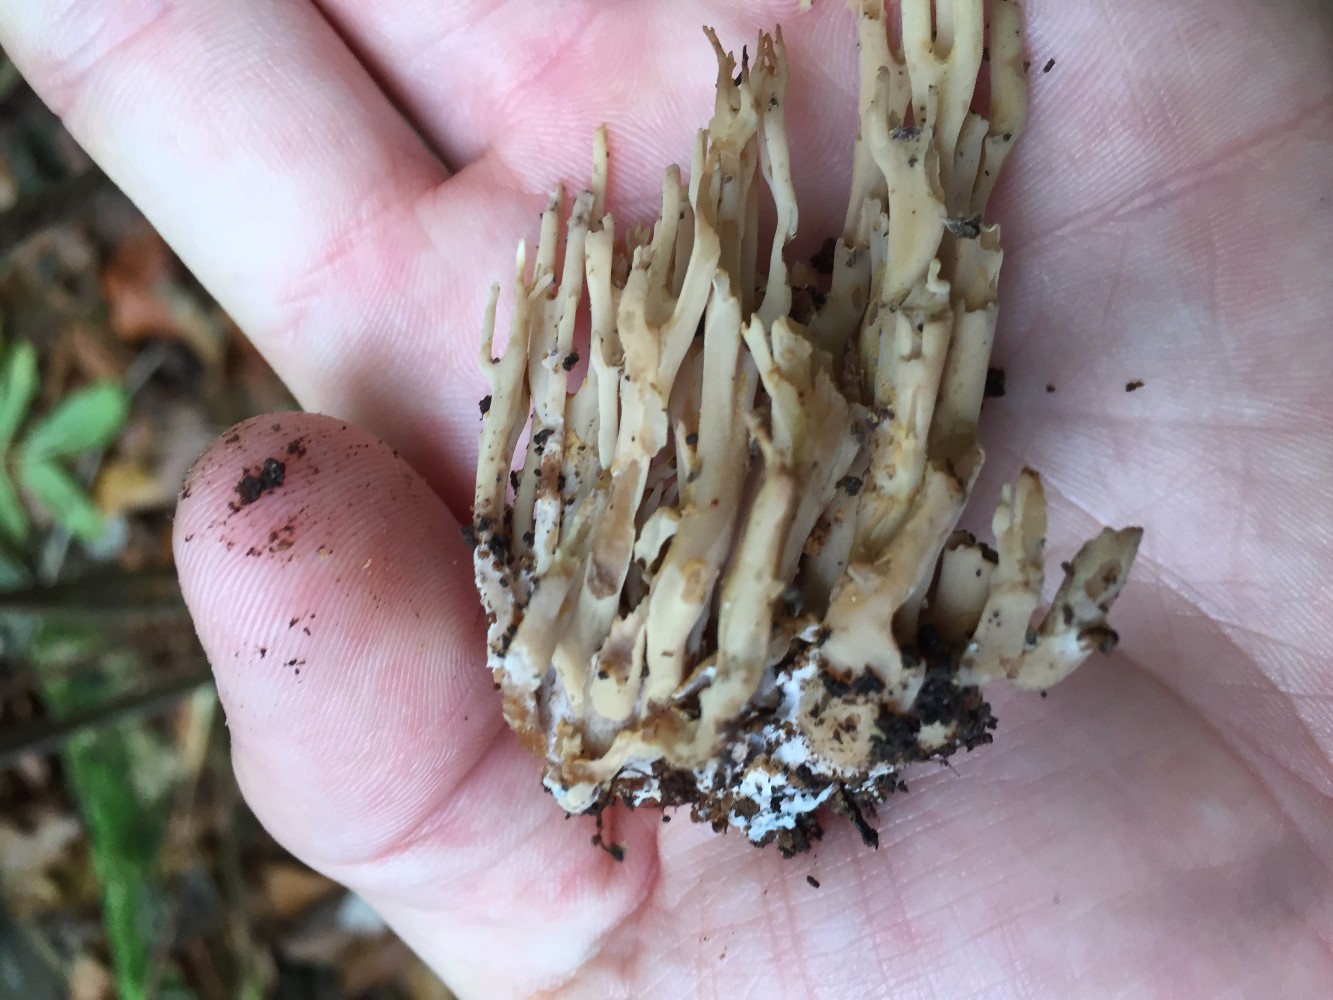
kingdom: Fungi
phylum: Basidiomycota
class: Agaricomycetes
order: Gomphales
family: Gomphaceae
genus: Ramaria
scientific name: Ramaria
